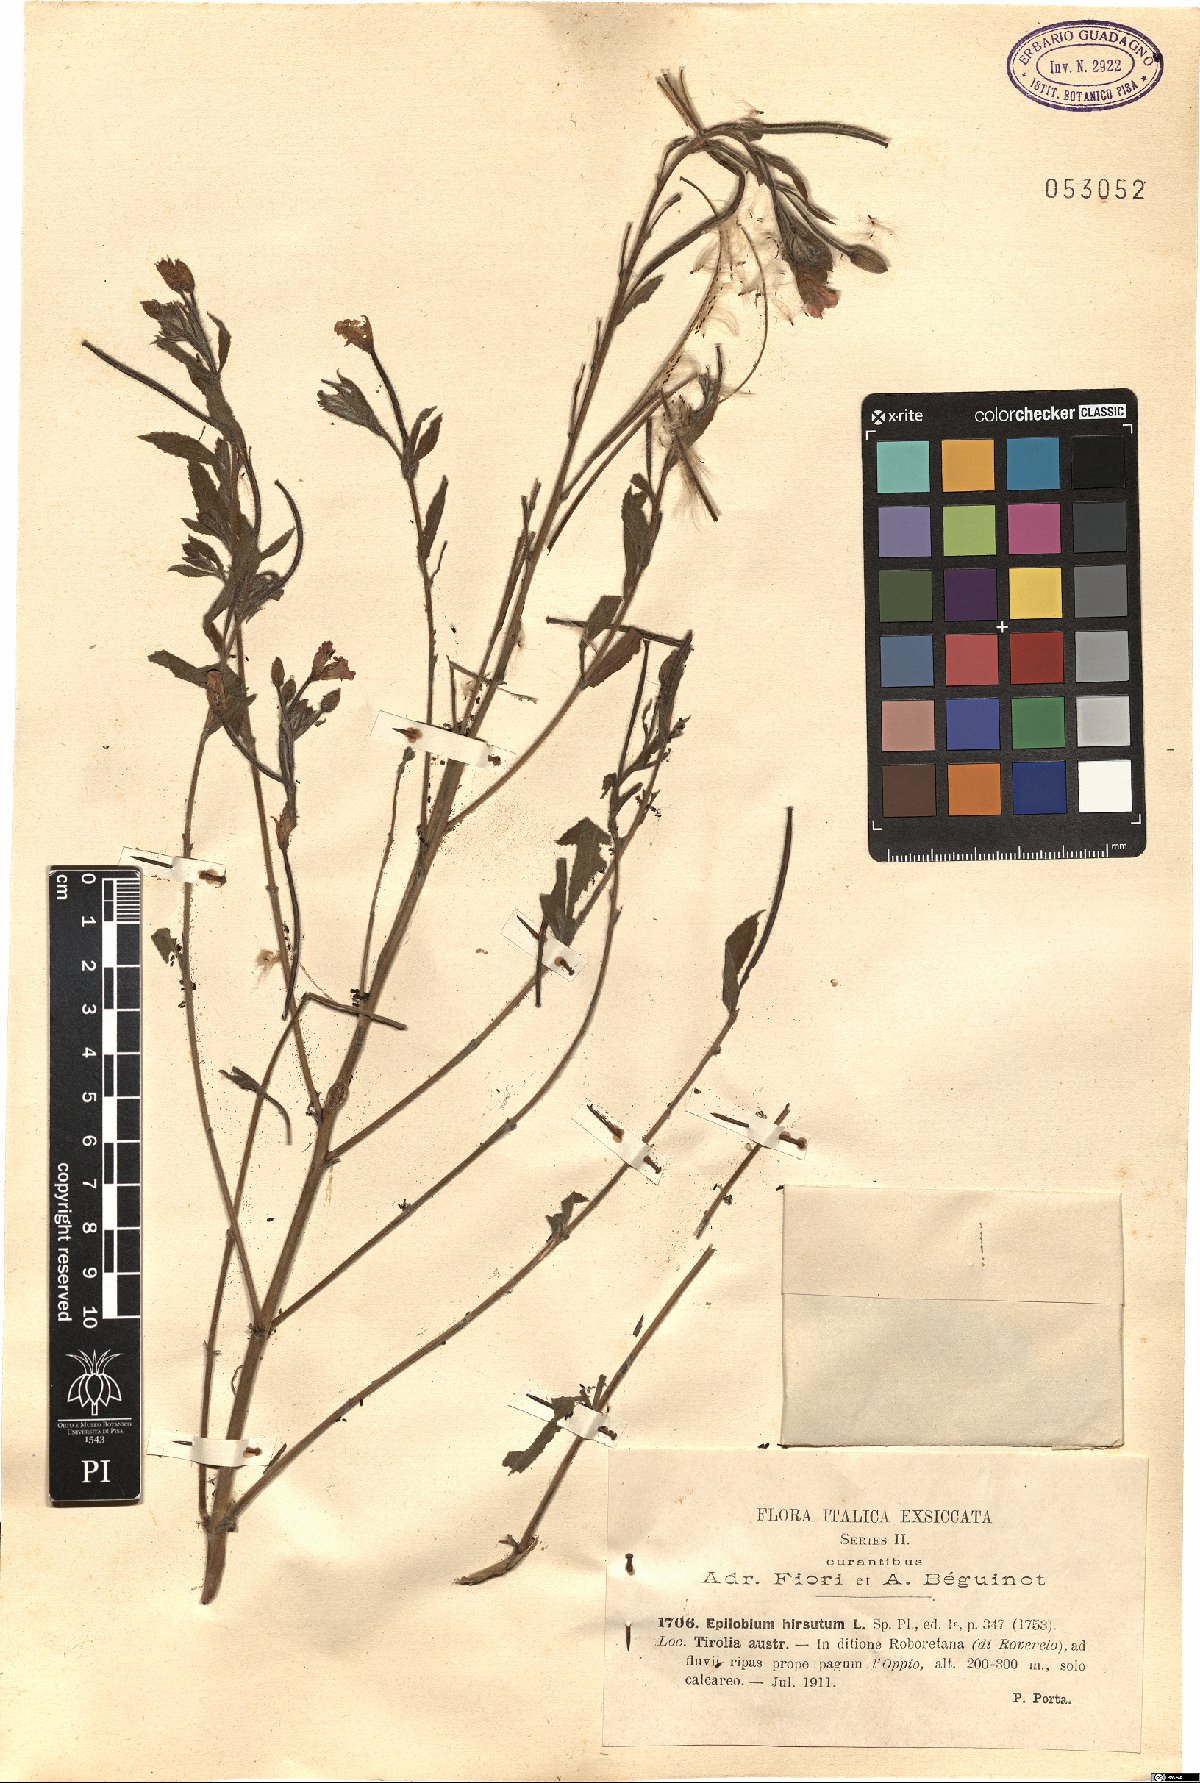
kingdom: Plantae
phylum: Tracheophyta
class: Magnoliopsida
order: Myrtales
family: Onagraceae
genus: Epilobium
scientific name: Epilobium hirsutum
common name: Great willowherb
